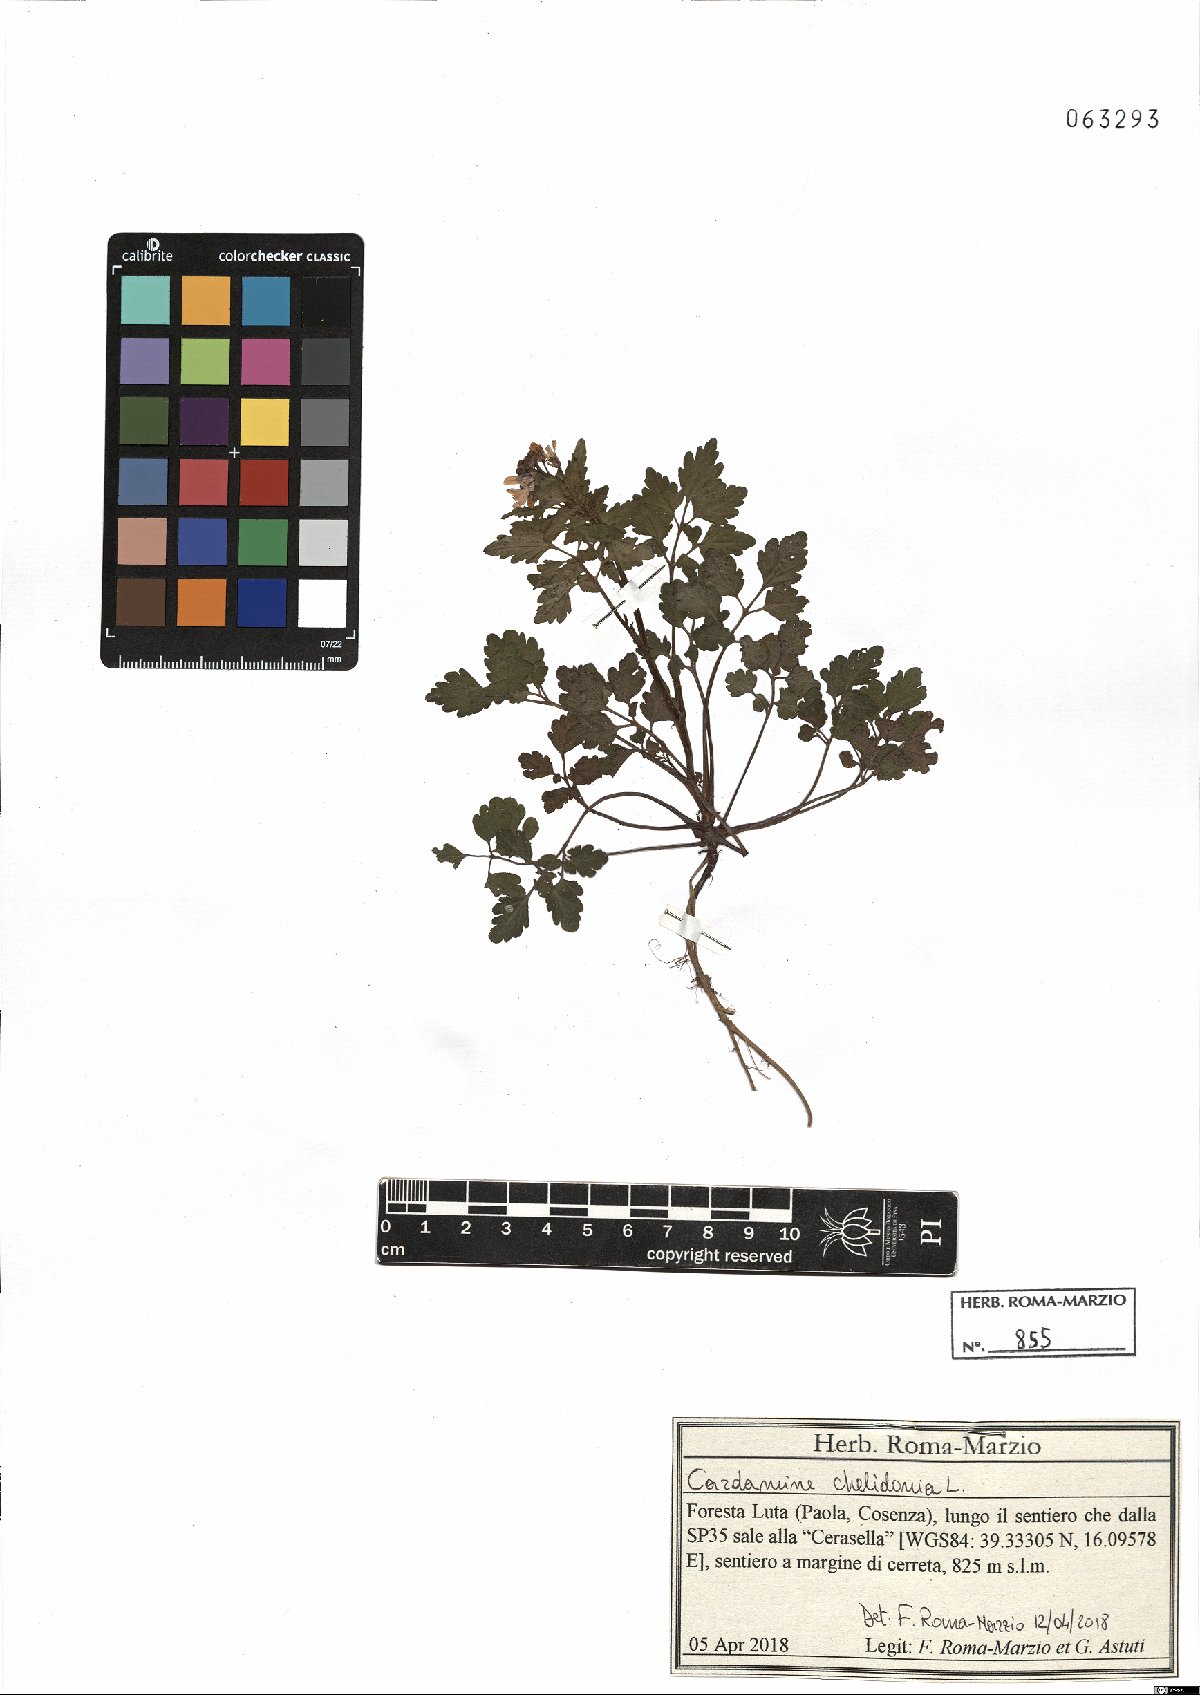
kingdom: Plantae
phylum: Tracheophyta
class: Magnoliopsida
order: Brassicales
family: Brassicaceae
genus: Cardamine
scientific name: Cardamine chelidonia
